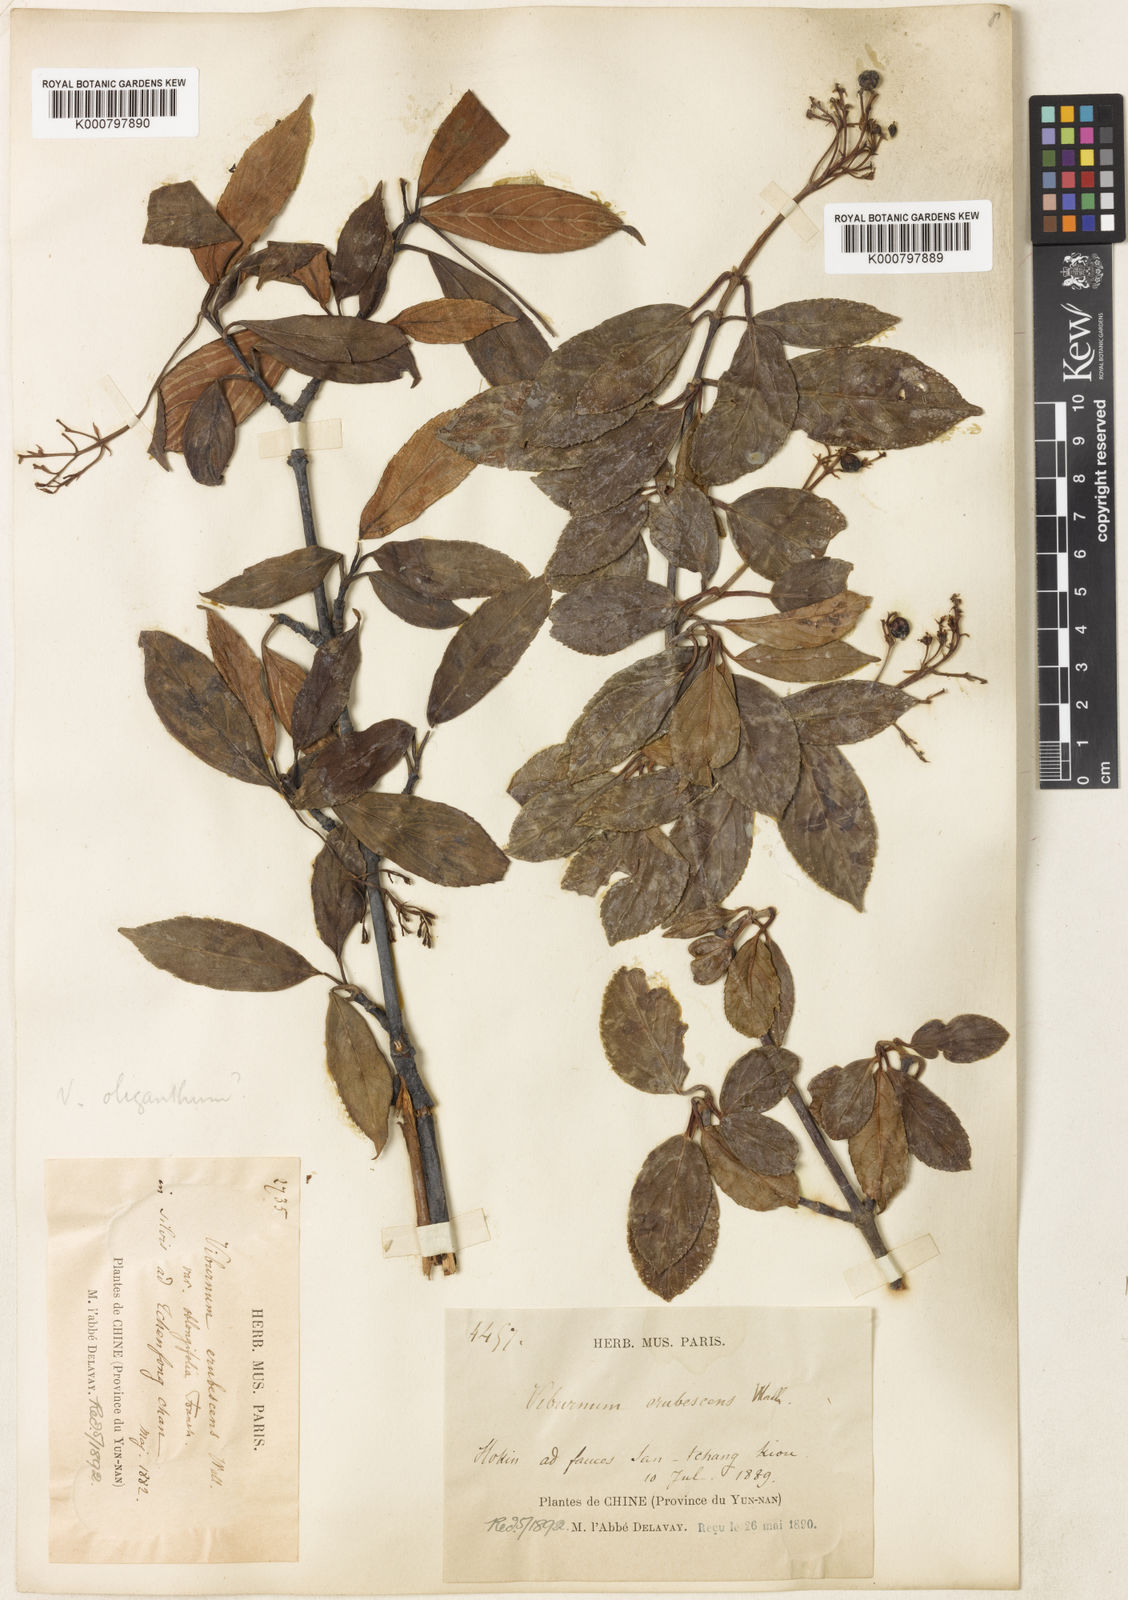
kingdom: Plantae
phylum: Tracheophyta
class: Magnoliopsida
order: Dipsacales
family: Viburnaceae
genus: Viburnum
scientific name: Viburnum
